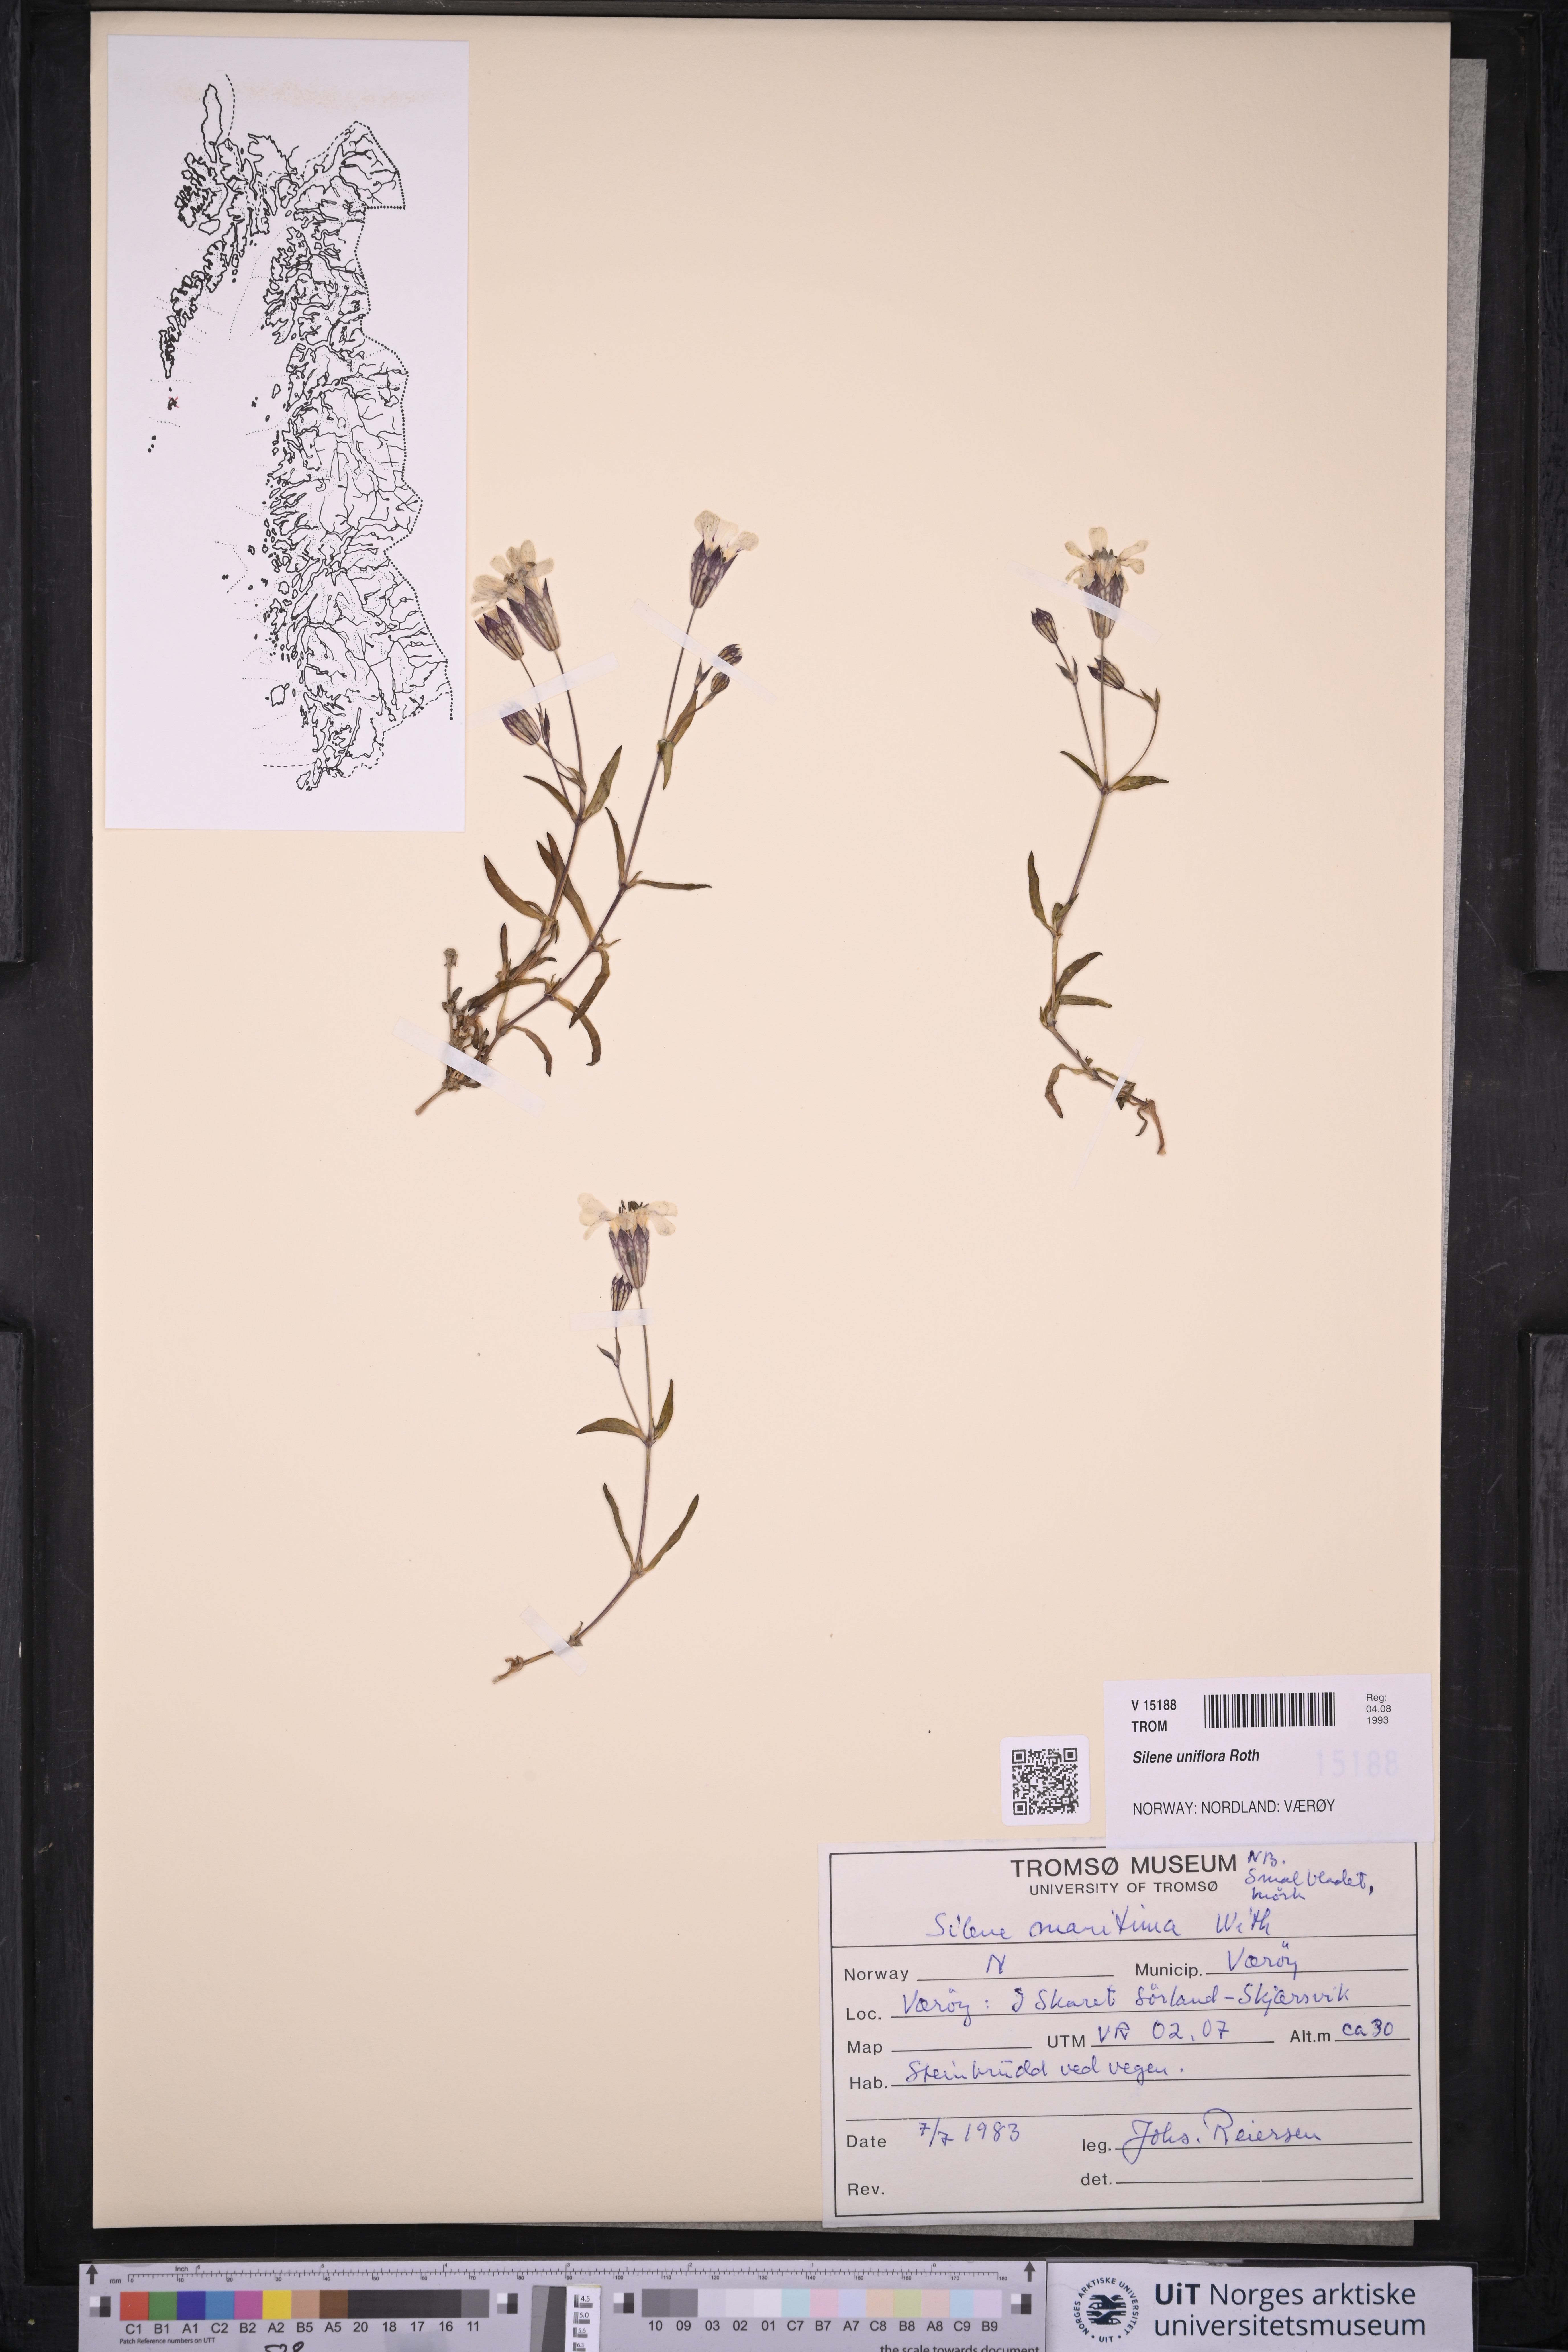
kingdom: Plantae
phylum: Tracheophyta
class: Magnoliopsida
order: Caryophyllales
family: Caryophyllaceae
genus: Silene
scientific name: Silene uniflora
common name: Sea campion
